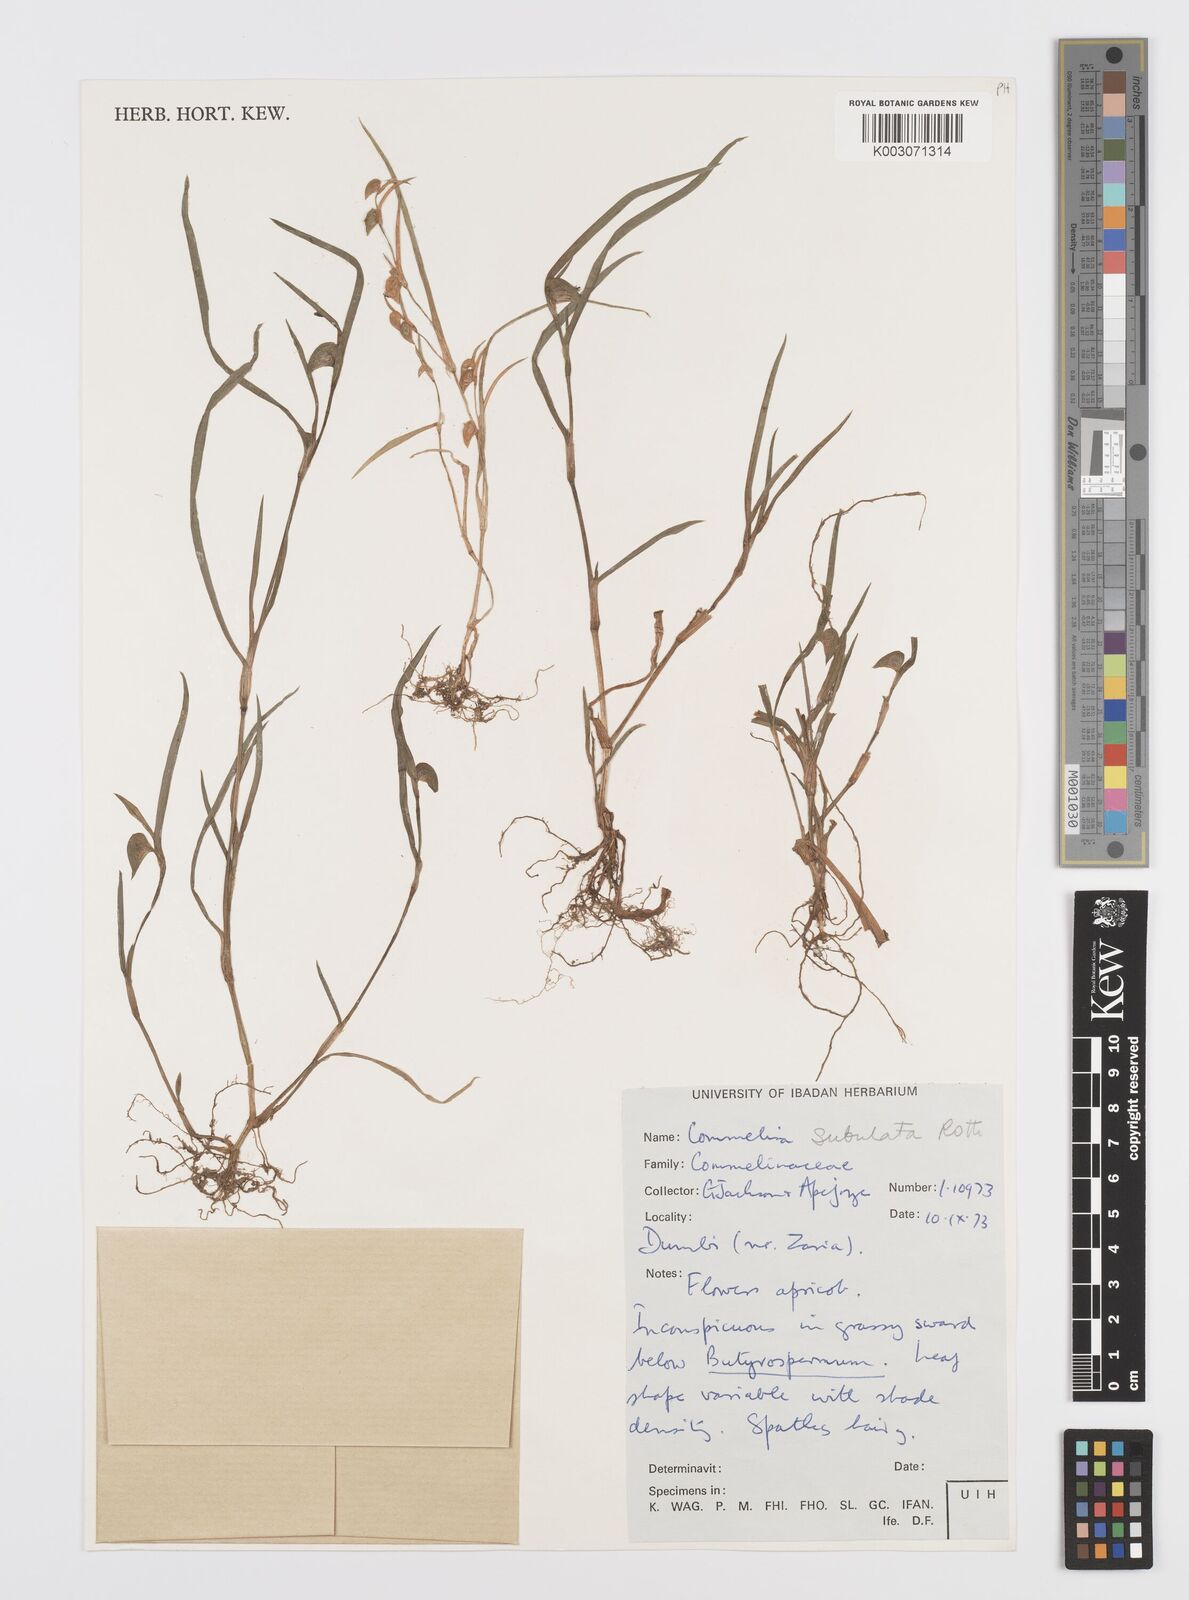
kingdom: Plantae
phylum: Tracheophyta
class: Liliopsida
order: Commelinales
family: Commelinaceae
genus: Commelina
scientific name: Commelina subulata
